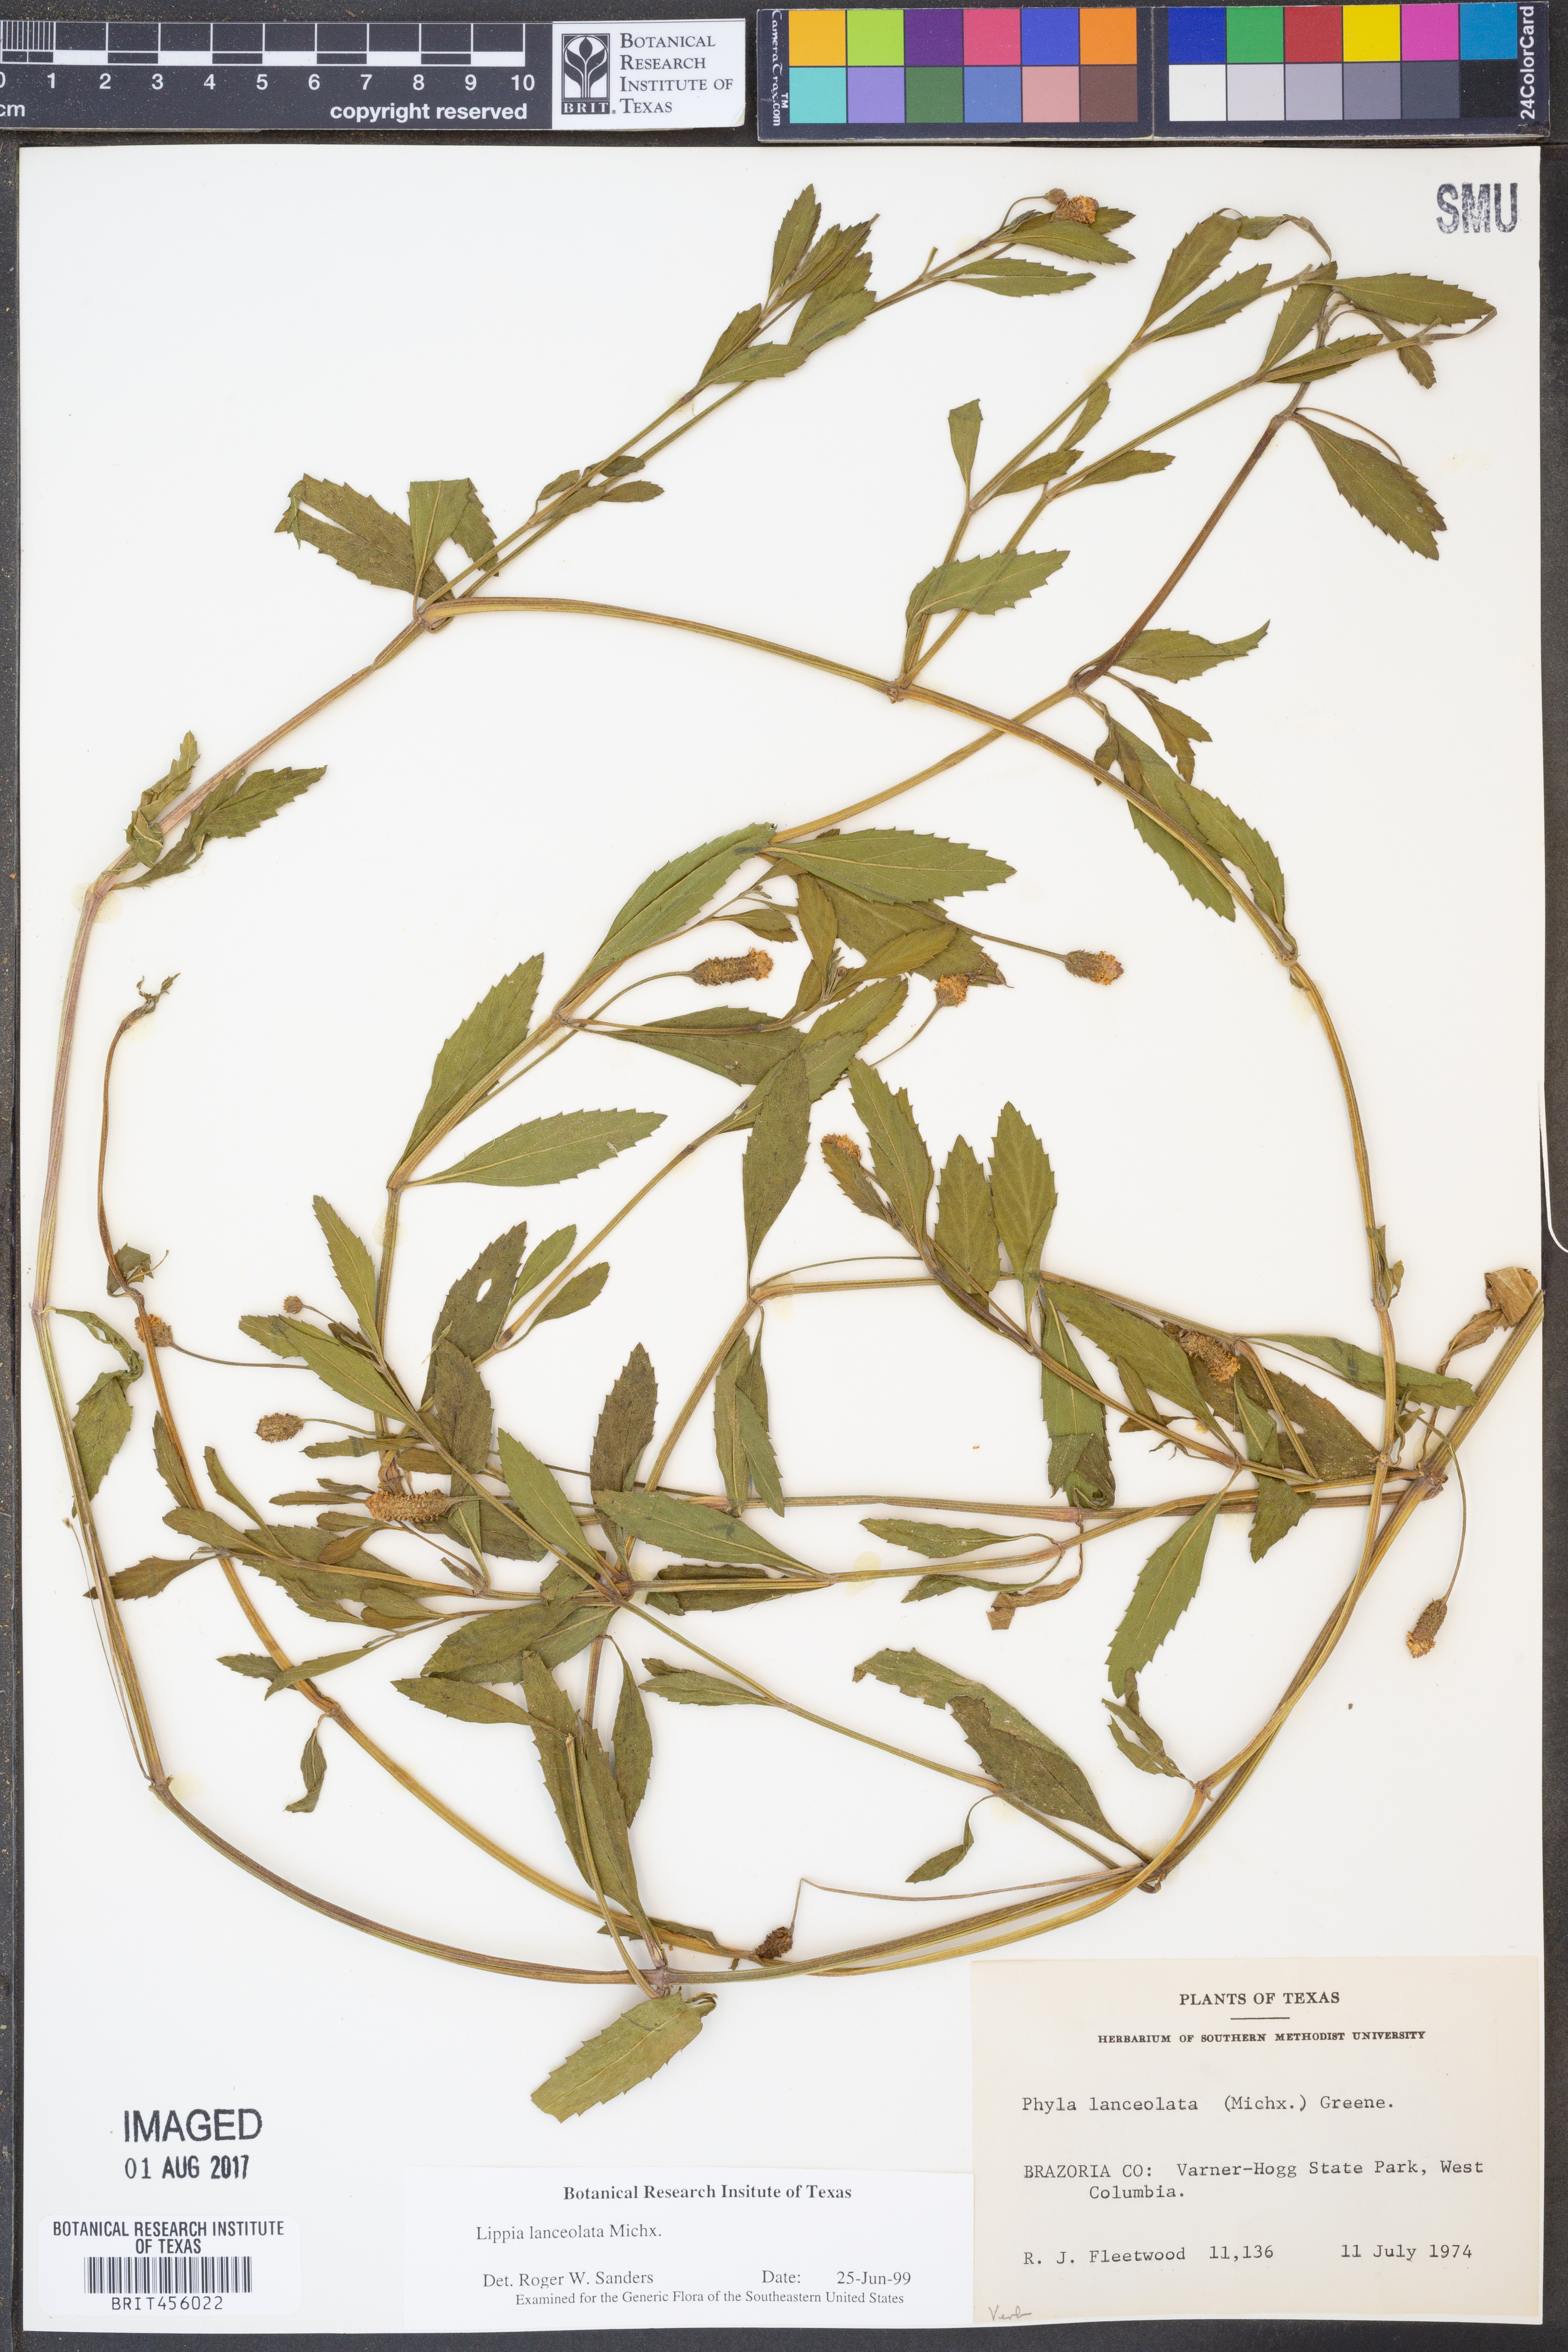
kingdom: Plantae
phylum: Tracheophyta
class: Magnoliopsida
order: Lamiales
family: Verbenaceae
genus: Phyla
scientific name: Phyla lanceolata
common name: Northern fogfruit
